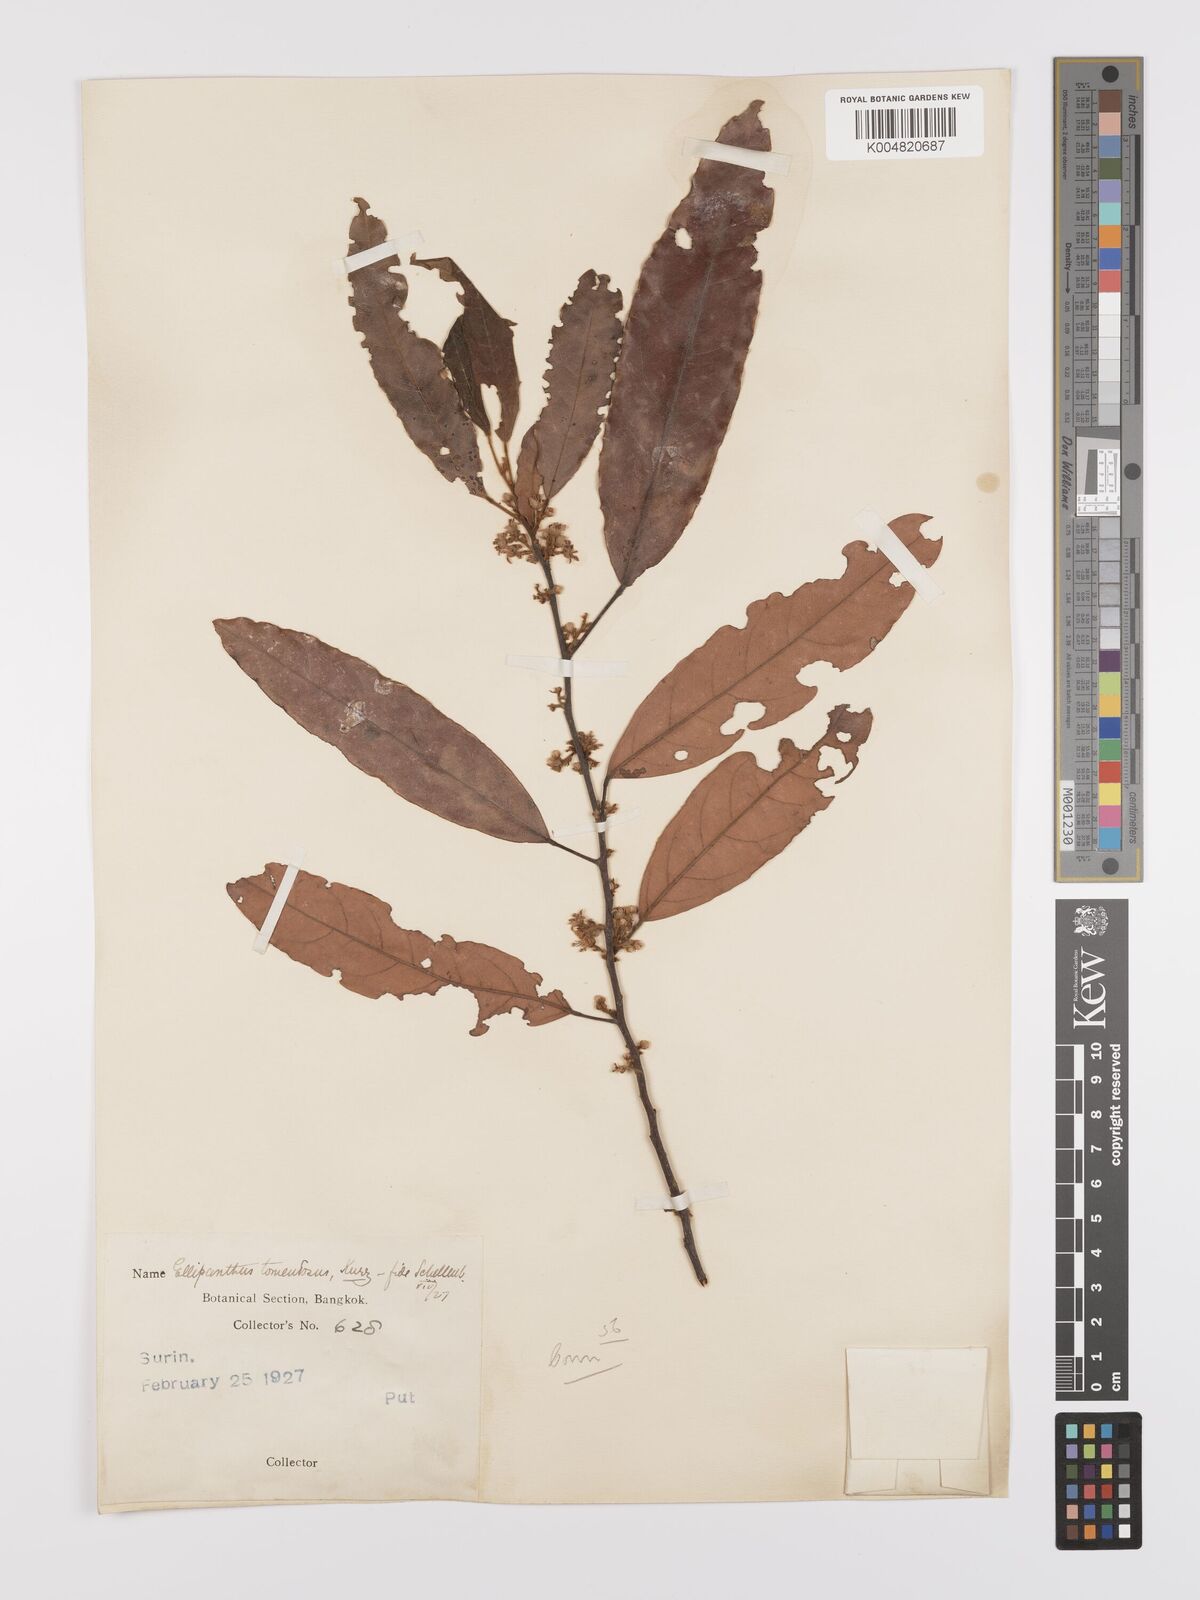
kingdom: Plantae
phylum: Tracheophyta
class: Magnoliopsida
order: Oxalidales
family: Connaraceae
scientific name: Connaraceae
